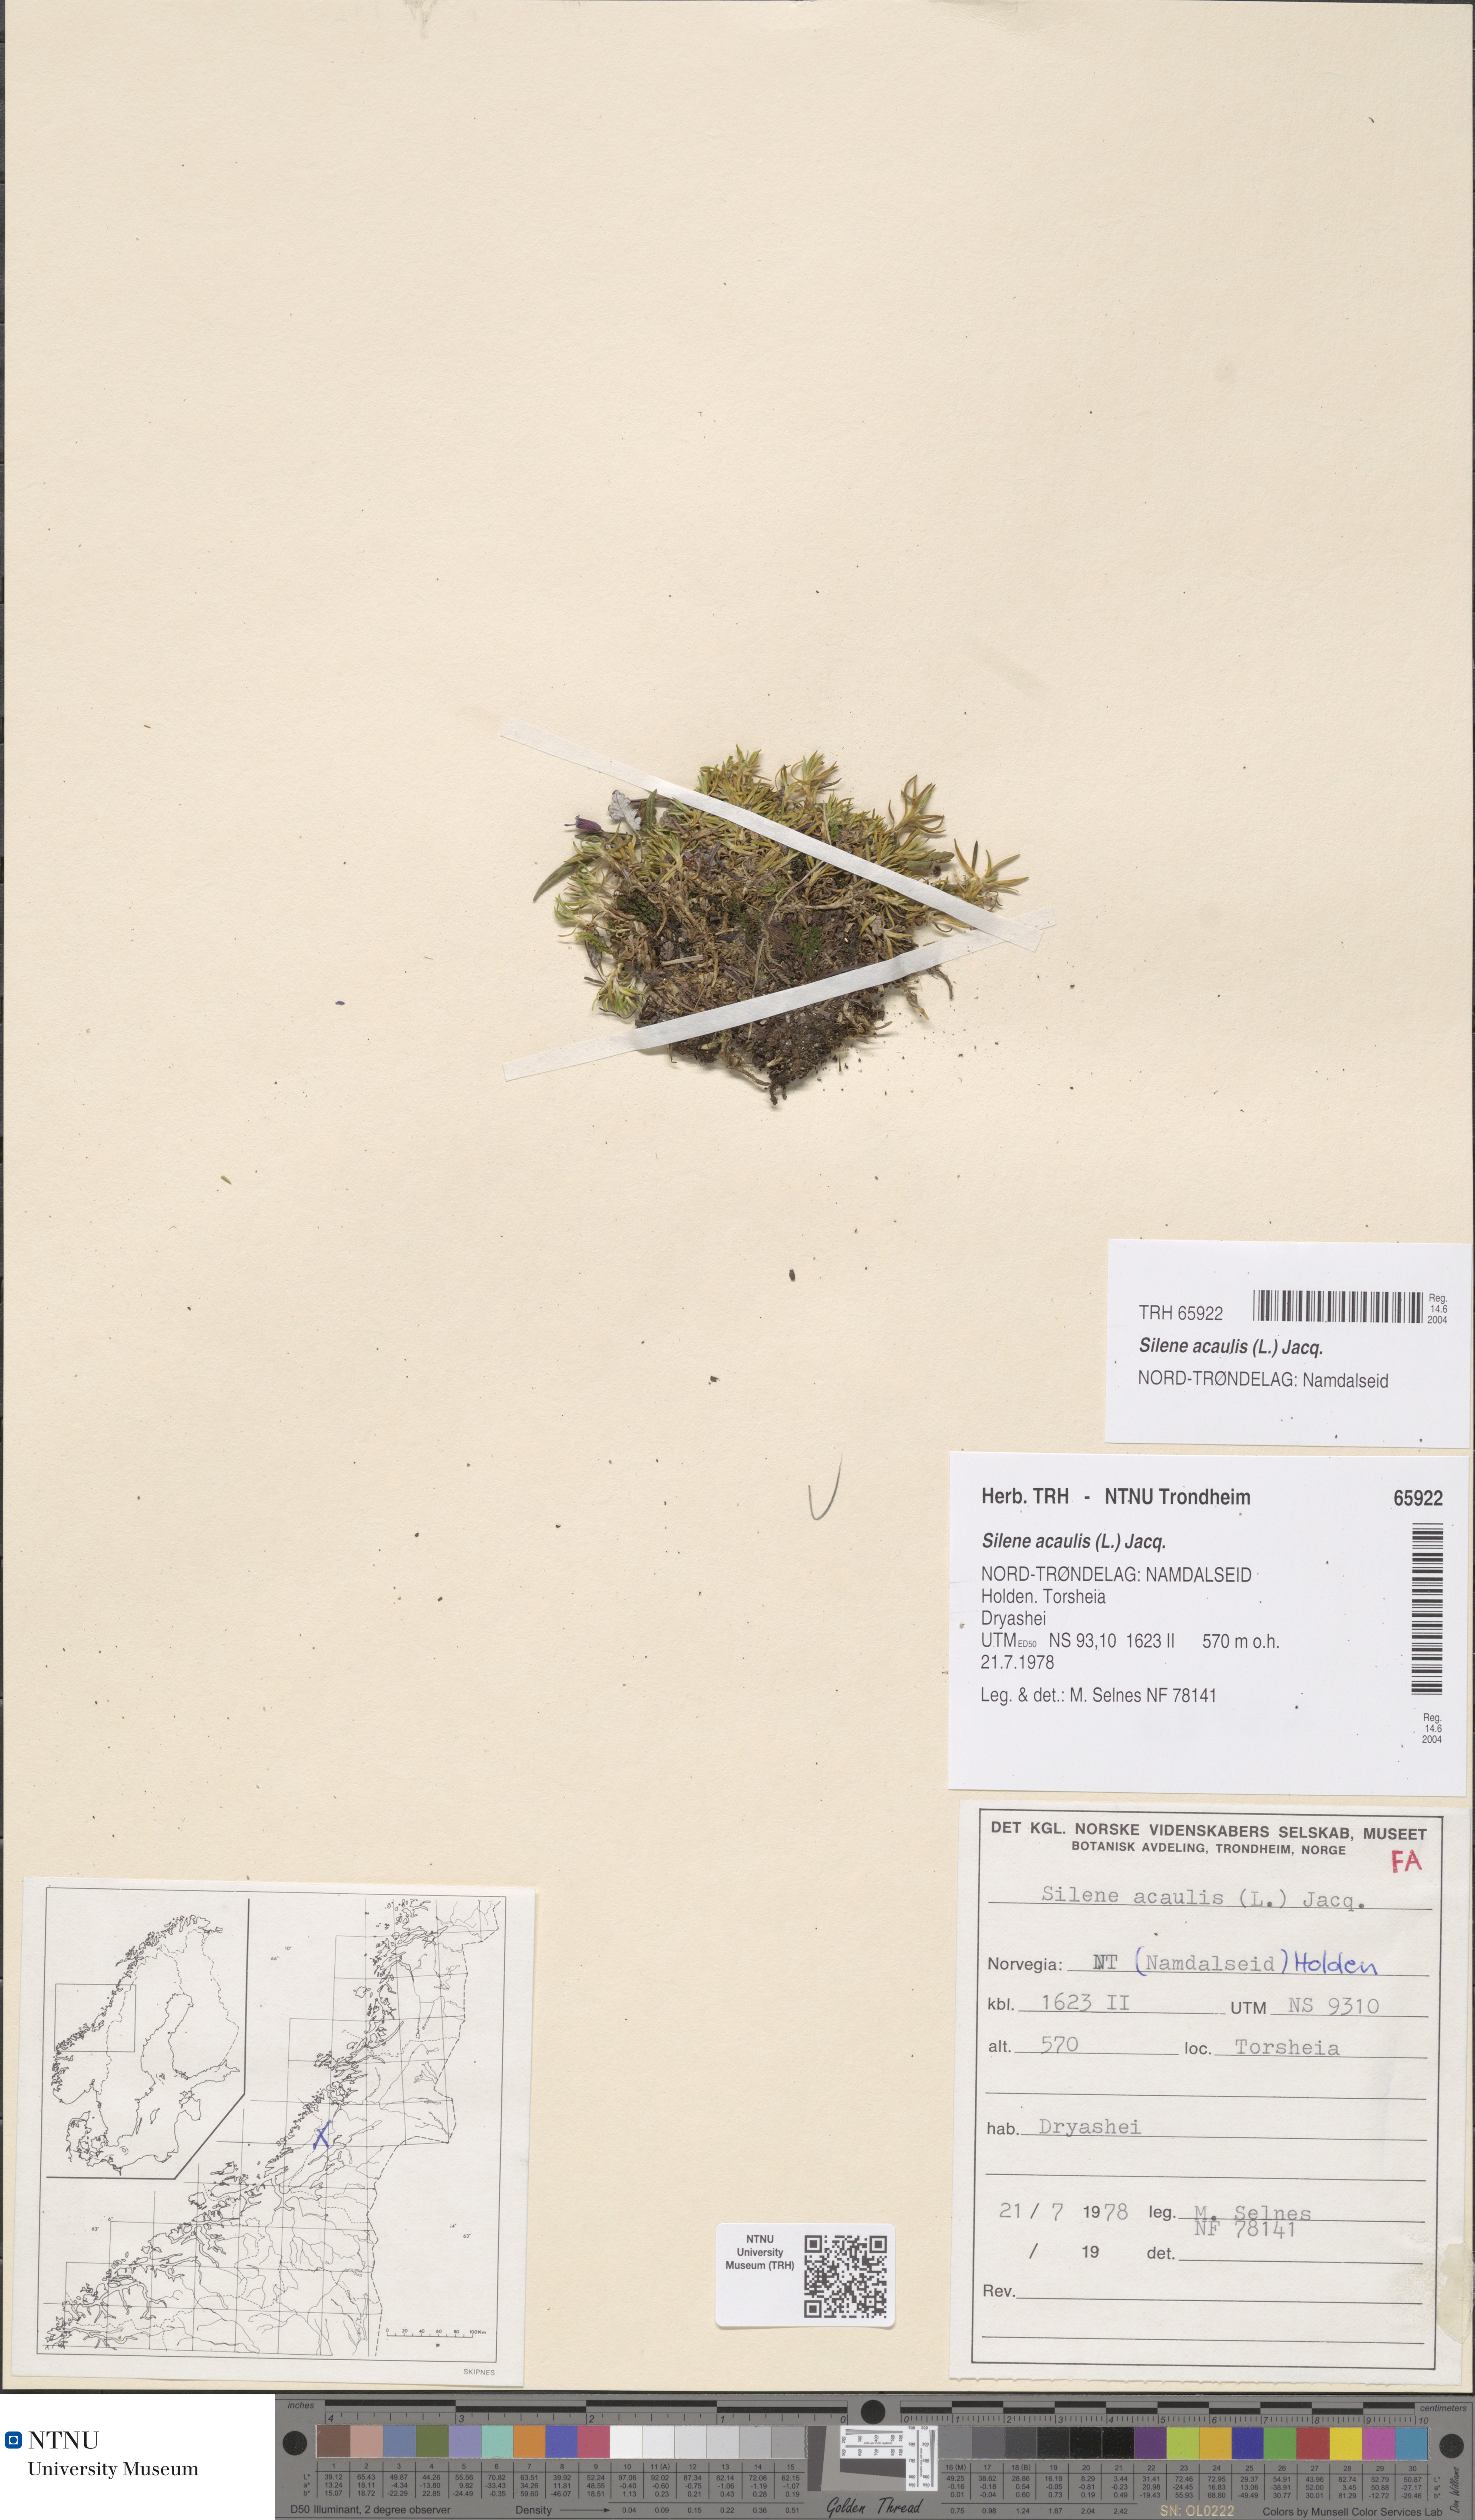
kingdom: Plantae
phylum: Tracheophyta
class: Magnoliopsida
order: Caryophyllales
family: Caryophyllaceae
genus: Silene
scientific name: Silene acaulis
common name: Moss campion
